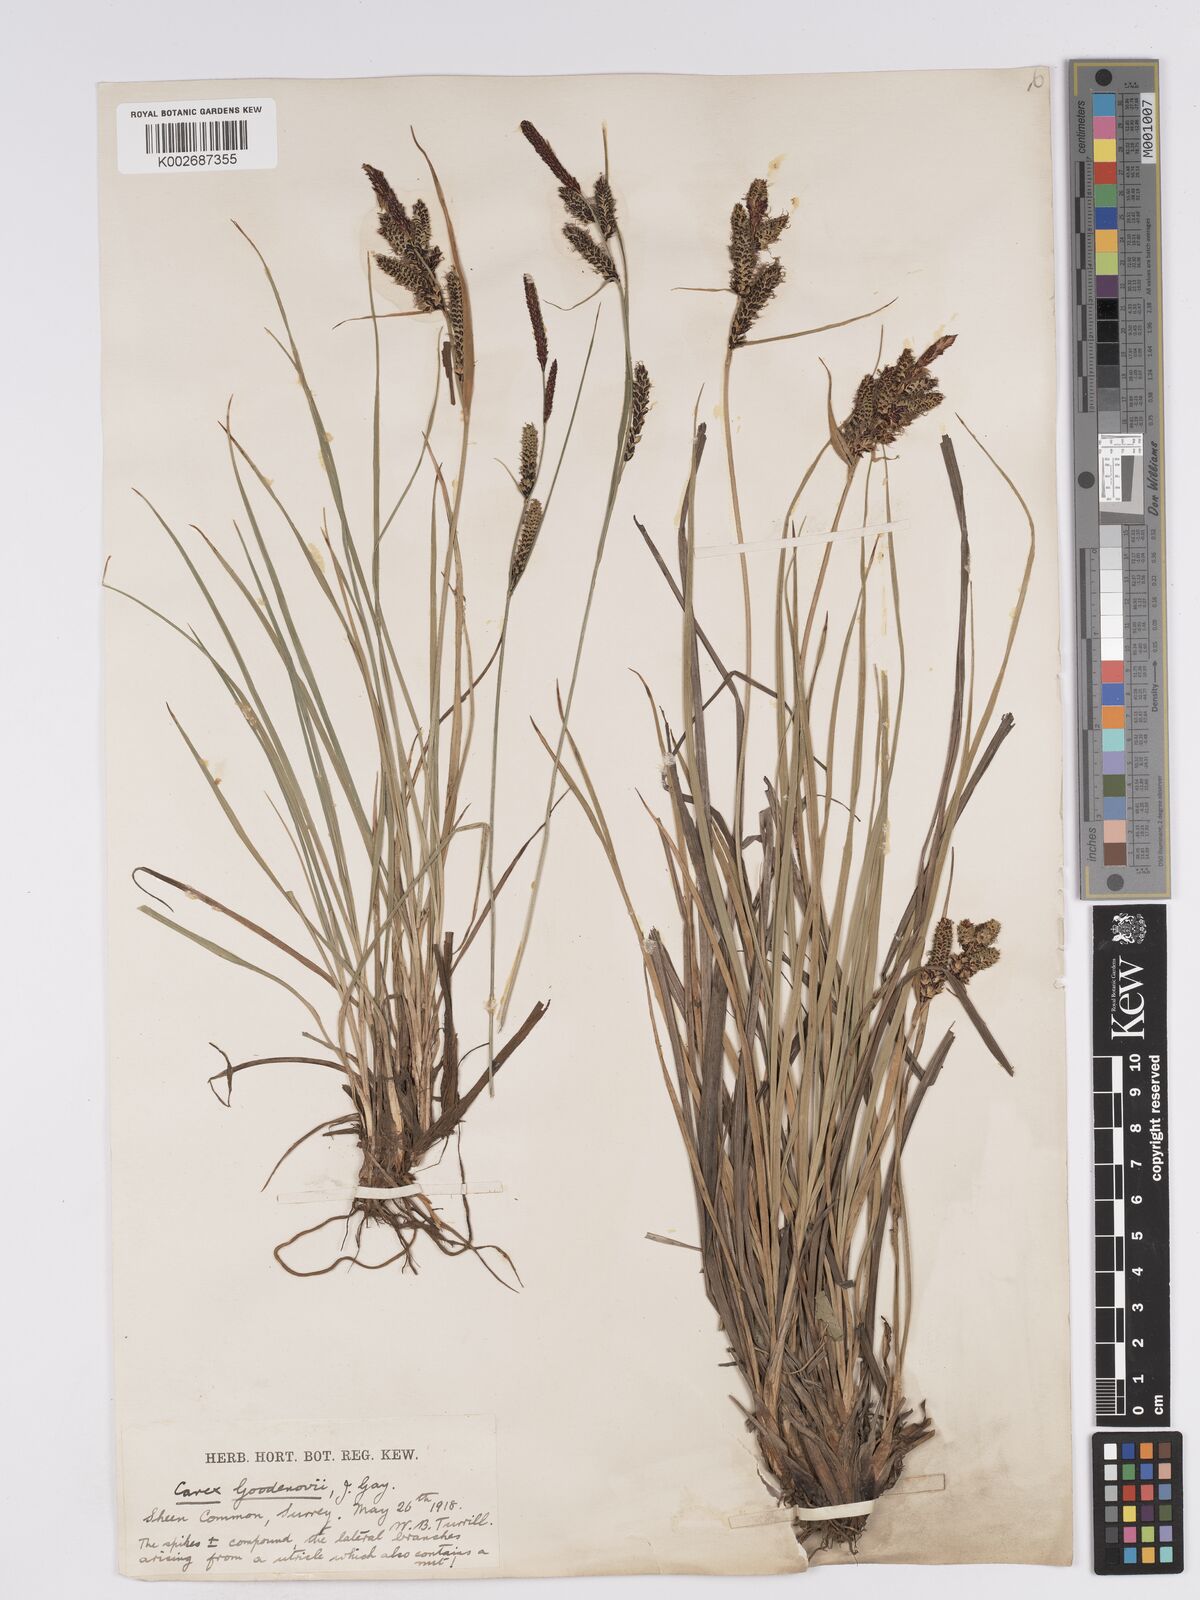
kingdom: Plantae
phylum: Tracheophyta
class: Liliopsida
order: Poales
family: Cyperaceae
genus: Carex
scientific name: Carex nigra
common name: Common sedge
